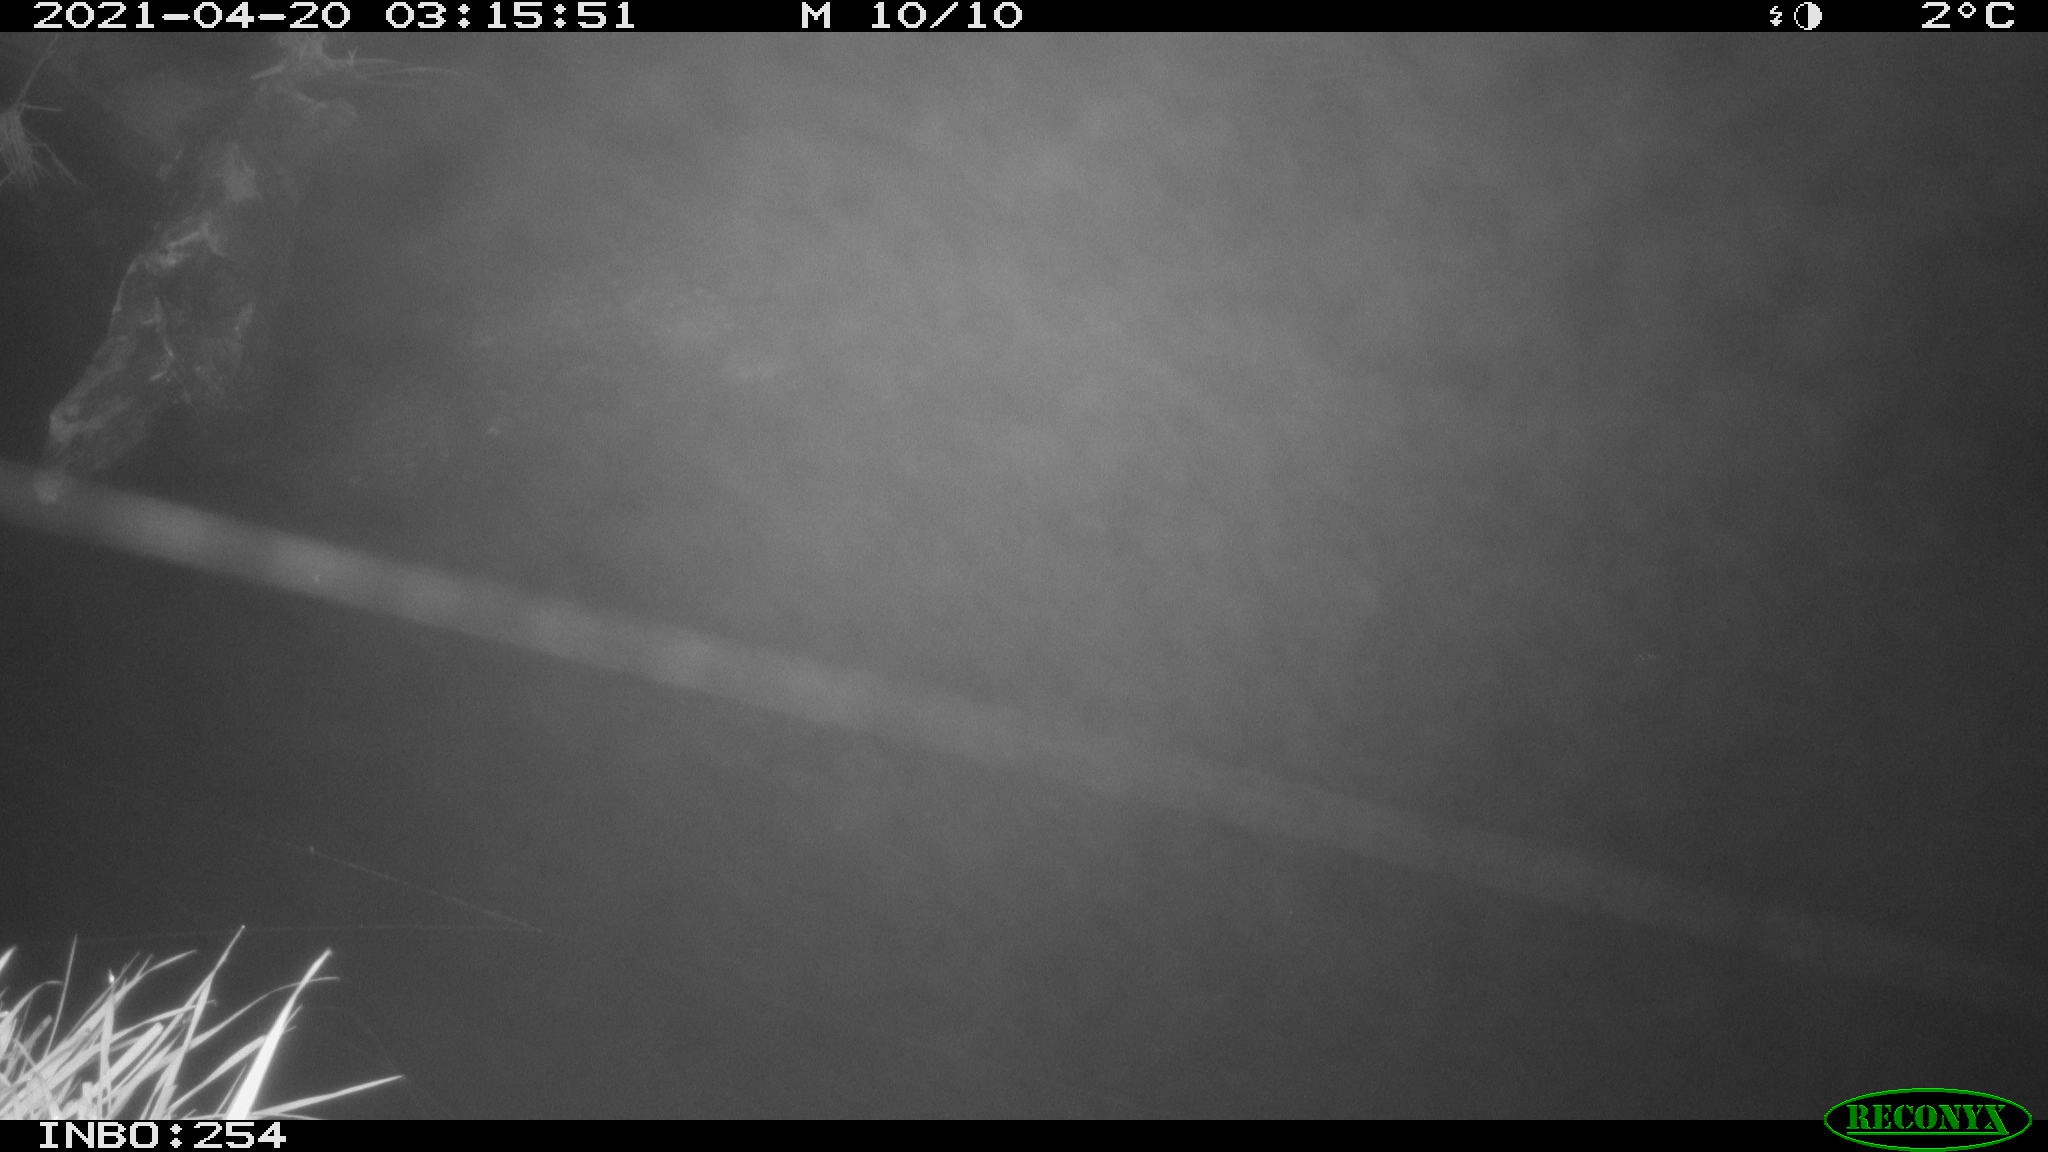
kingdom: Animalia
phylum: Chordata
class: Aves
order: Anseriformes
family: Anatidae
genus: Anas
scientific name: Anas
